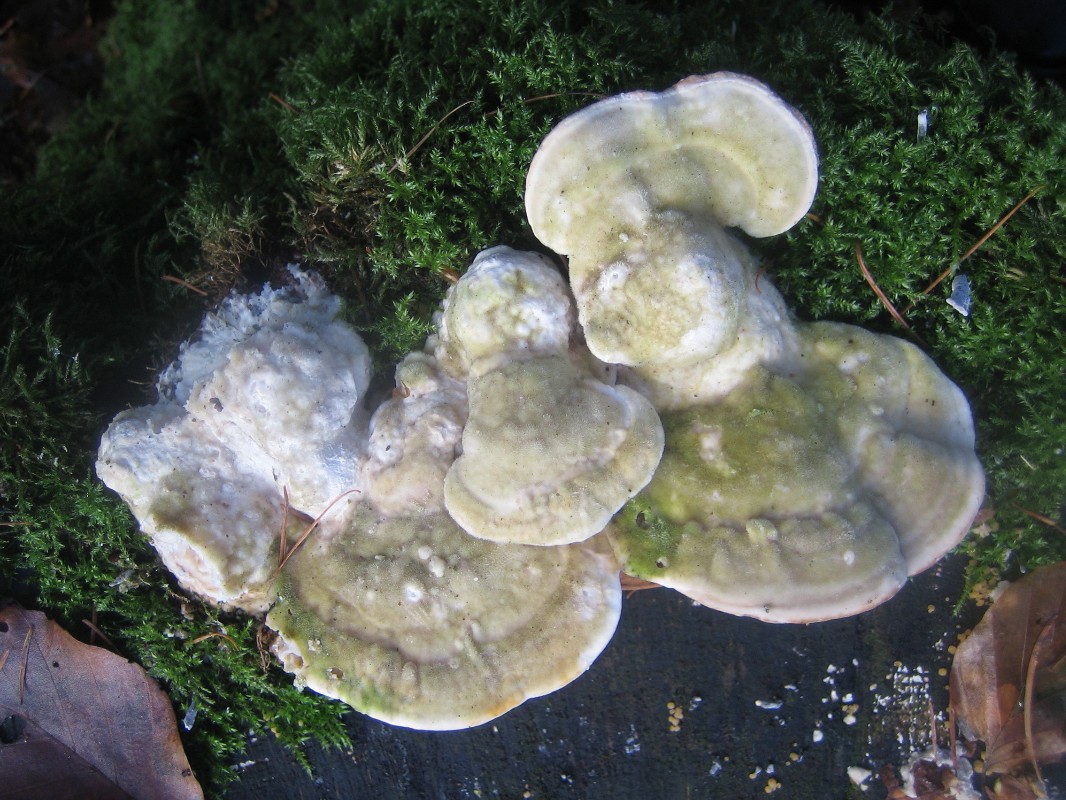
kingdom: Fungi
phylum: Basidiomycota
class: Agaricomycetes
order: Polyporales
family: Polyporaceae
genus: Trametes
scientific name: Trametes gibbosa
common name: puklet læderporesvamp
